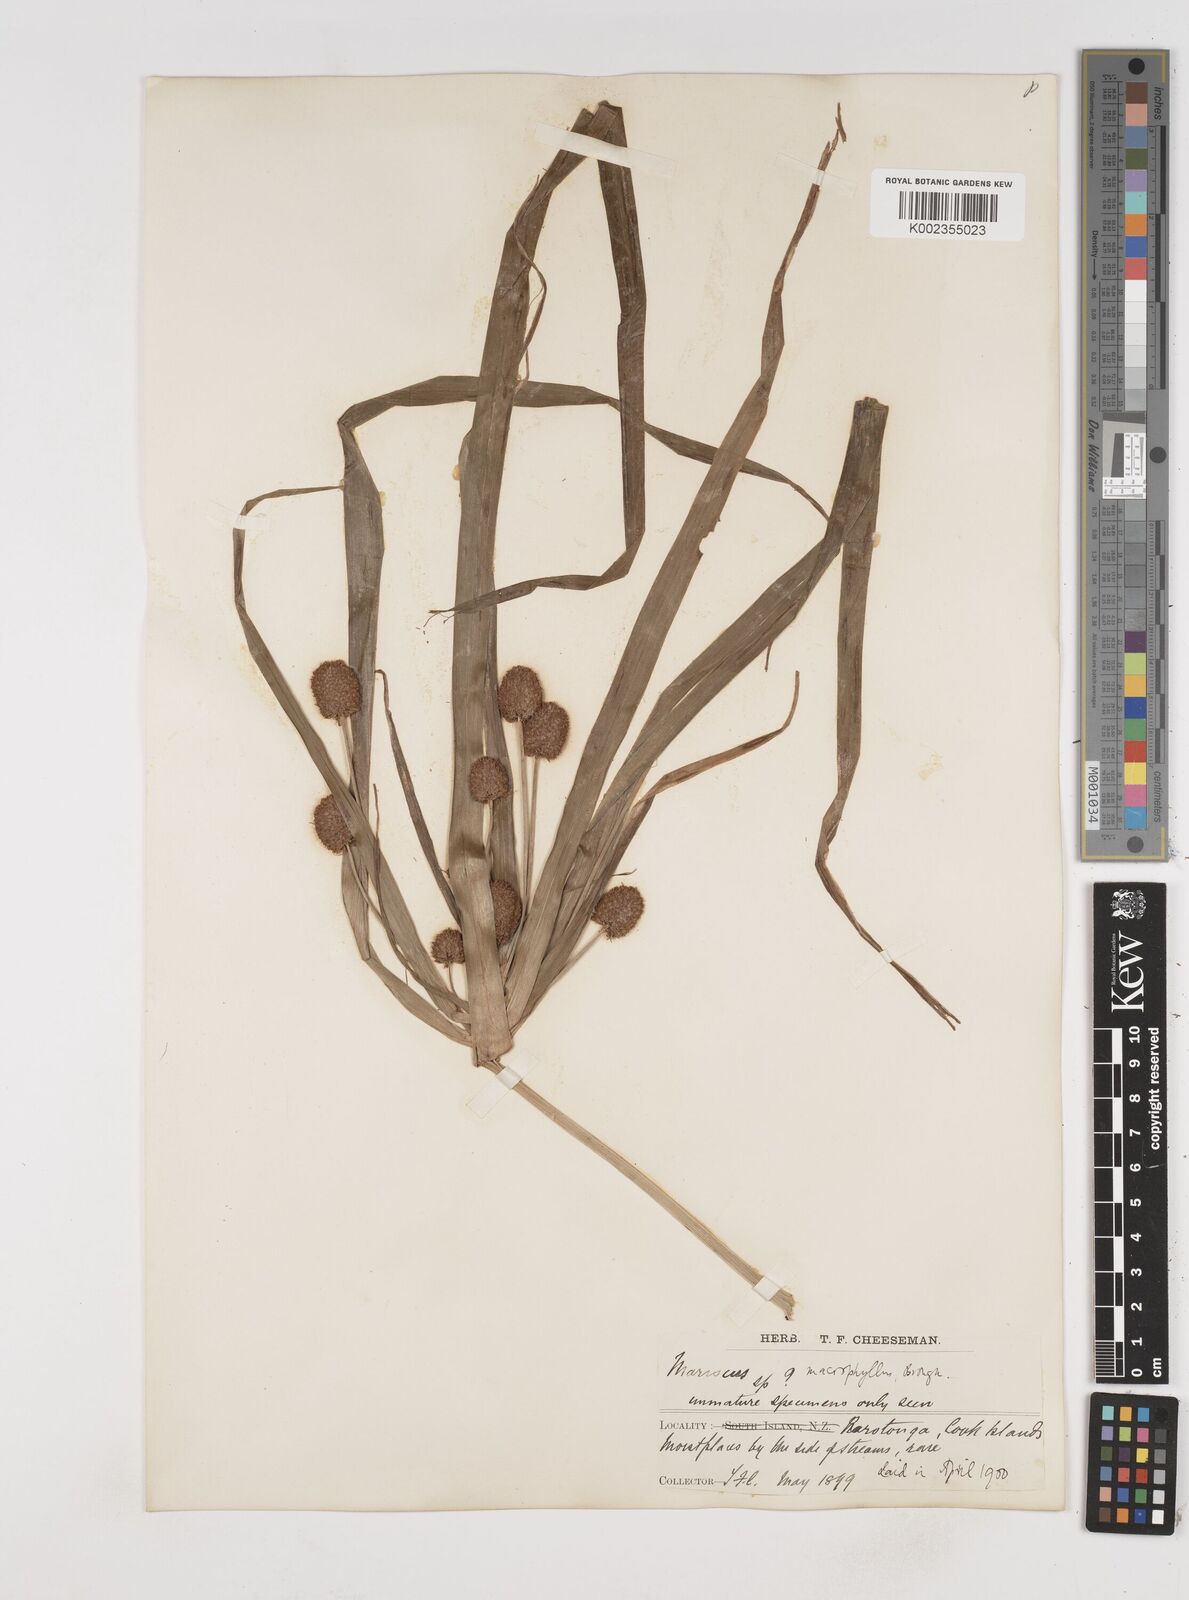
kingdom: Plantae
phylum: Tracheophyta
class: Liliopsida
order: Poales
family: Cyperaceae
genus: Cyperus
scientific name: Cyperus macrophyllus
